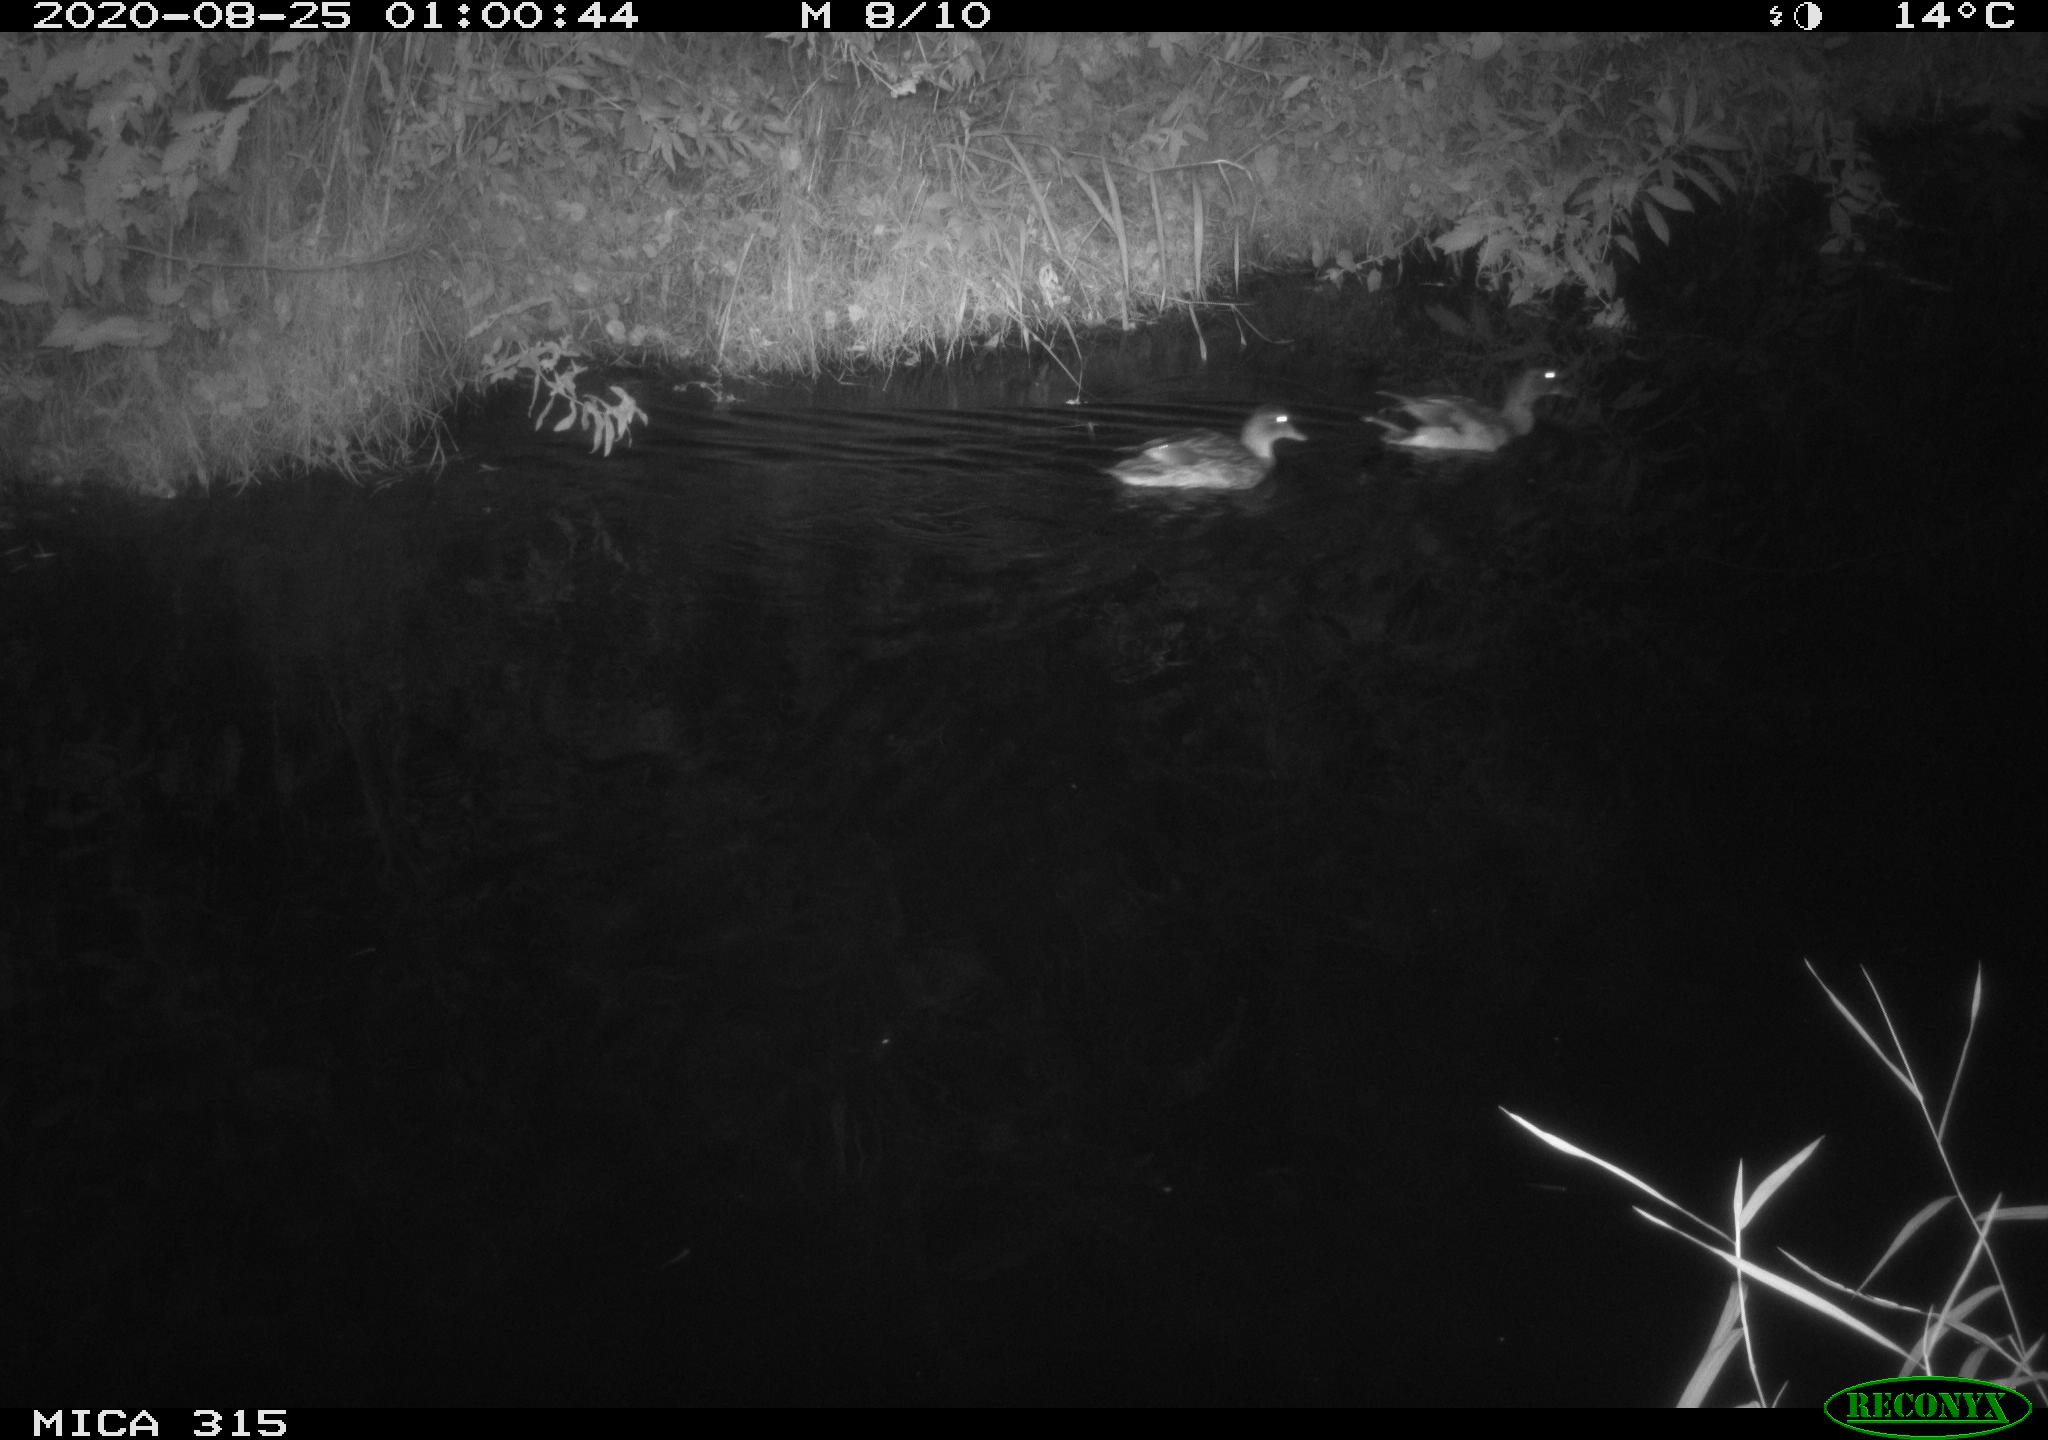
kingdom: Animalia
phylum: Chordata
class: Aves
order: Anseriformes
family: Anatidae
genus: Anas
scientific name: Anas platyrhynchos
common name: Mallard
